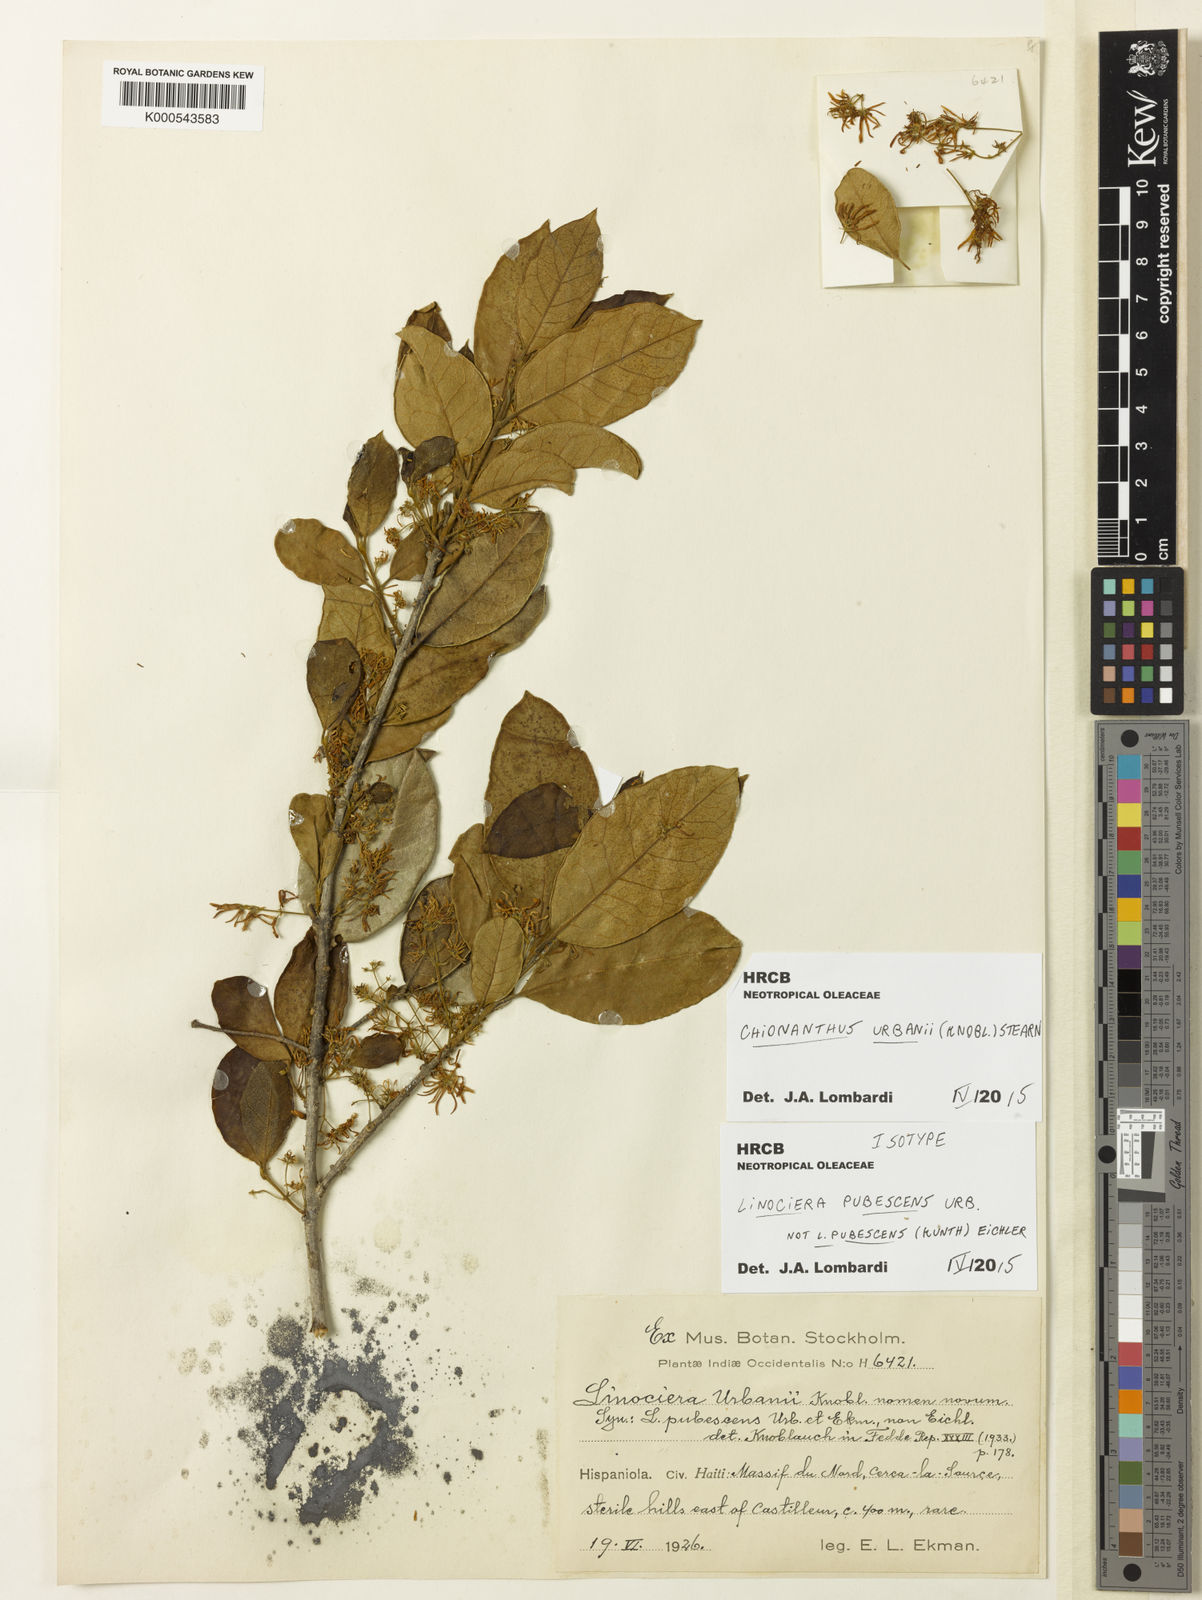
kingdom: Plantae
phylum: Tracheophyta
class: Magnoliopsida
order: Lamiales
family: Oleaceae
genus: Chionanthus
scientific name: Chionanthus urbanii
